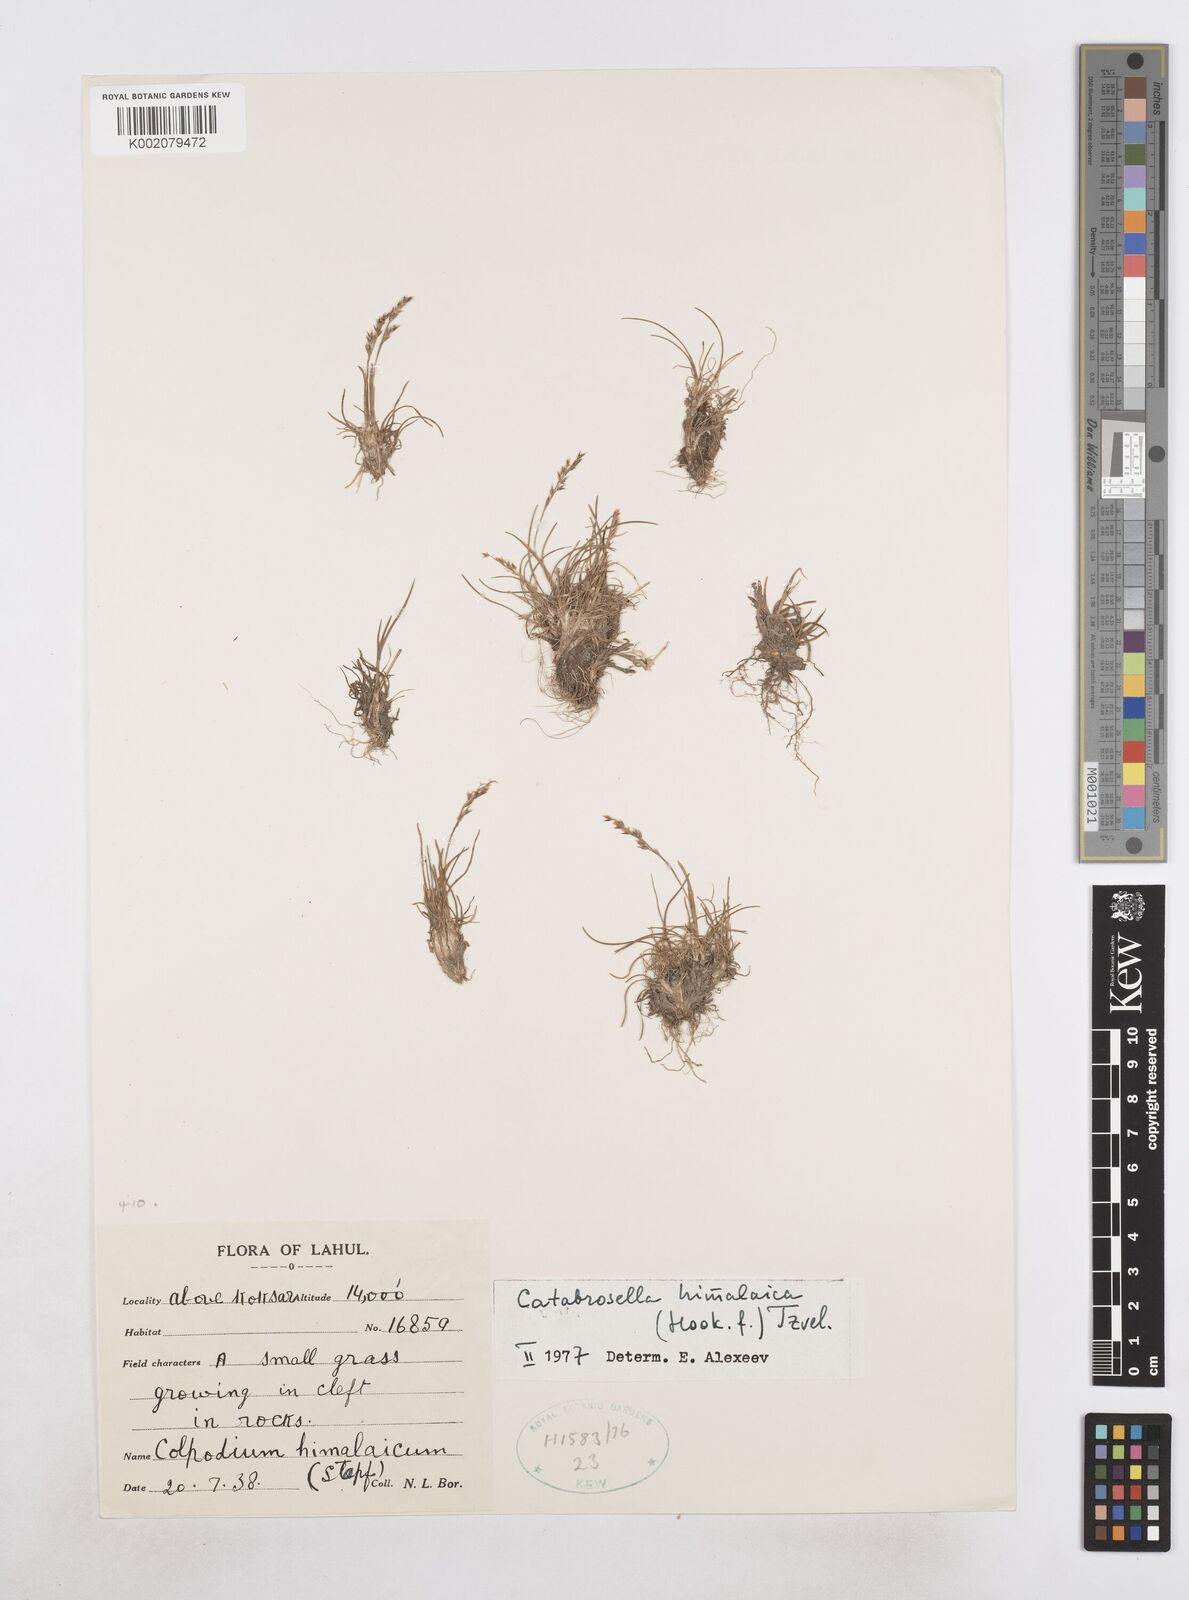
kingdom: Plantae
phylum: Tracheophyta
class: Liliopsida
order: Poales
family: Poaceae
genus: Catabrosella
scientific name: Catabrosella himalaica
